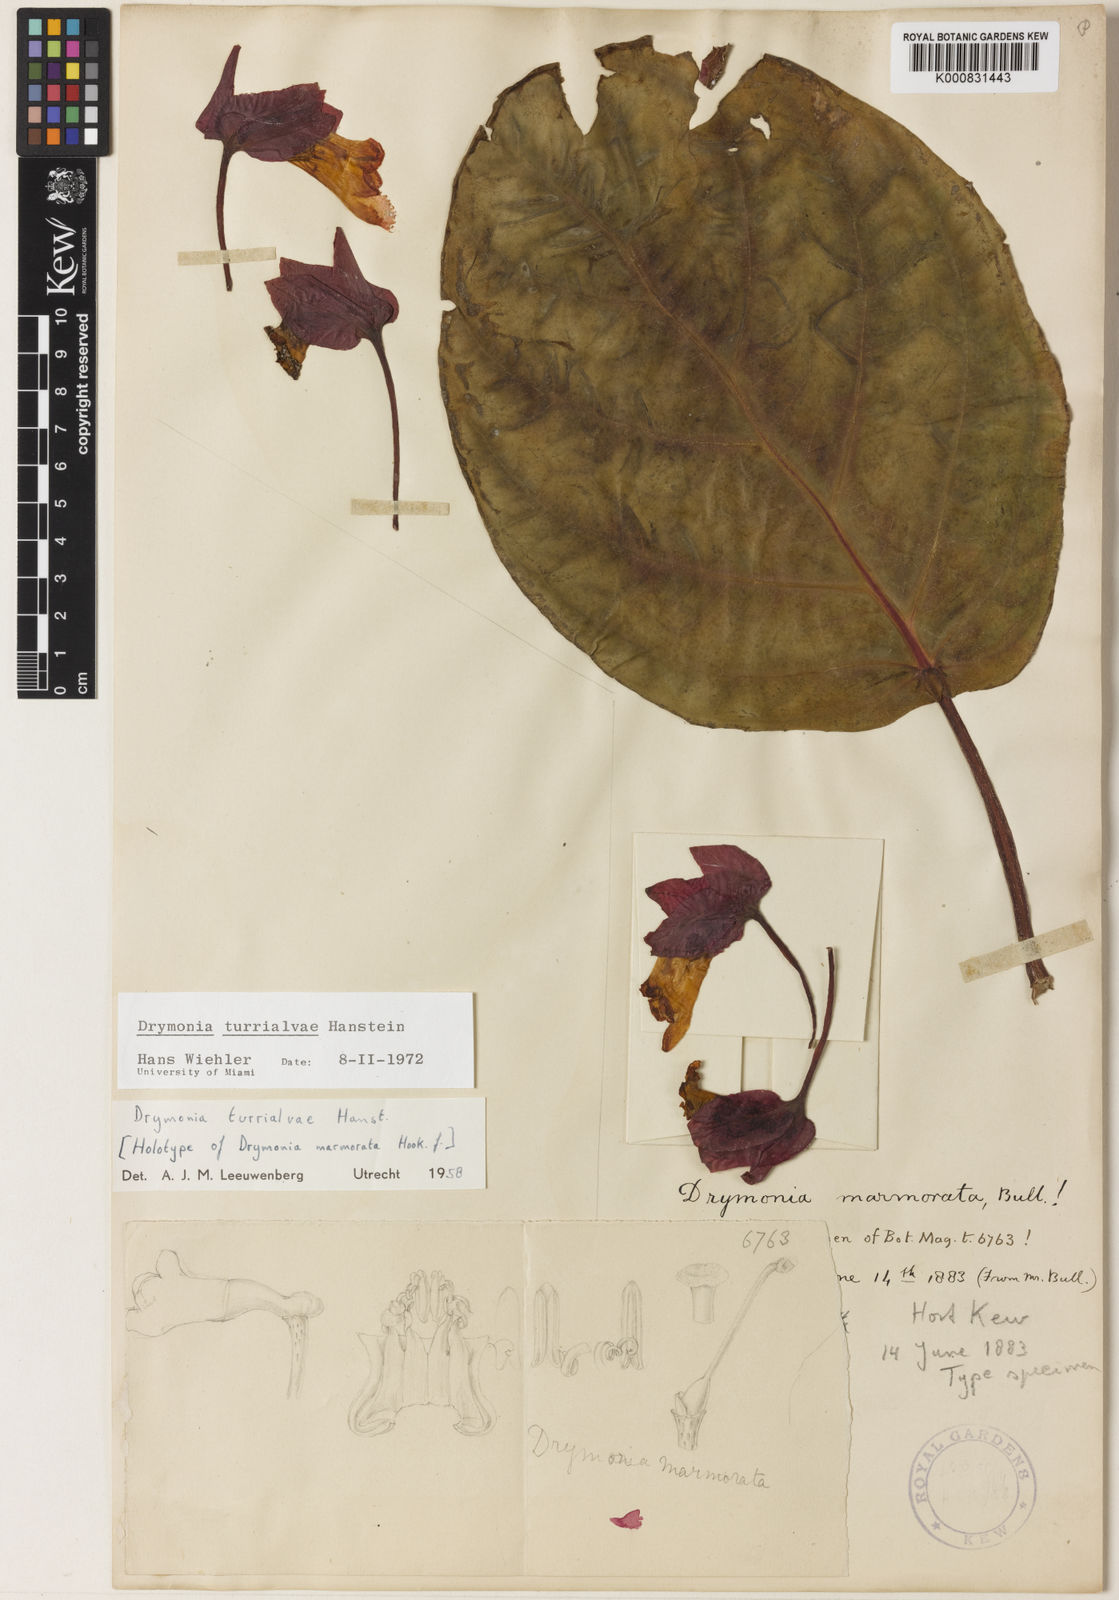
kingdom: Plantae
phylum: Tracheophyta
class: Magnoliopsida
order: Lamiales
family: Gesneriaceae
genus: Drymonia
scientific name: Drymonia turrialvae
